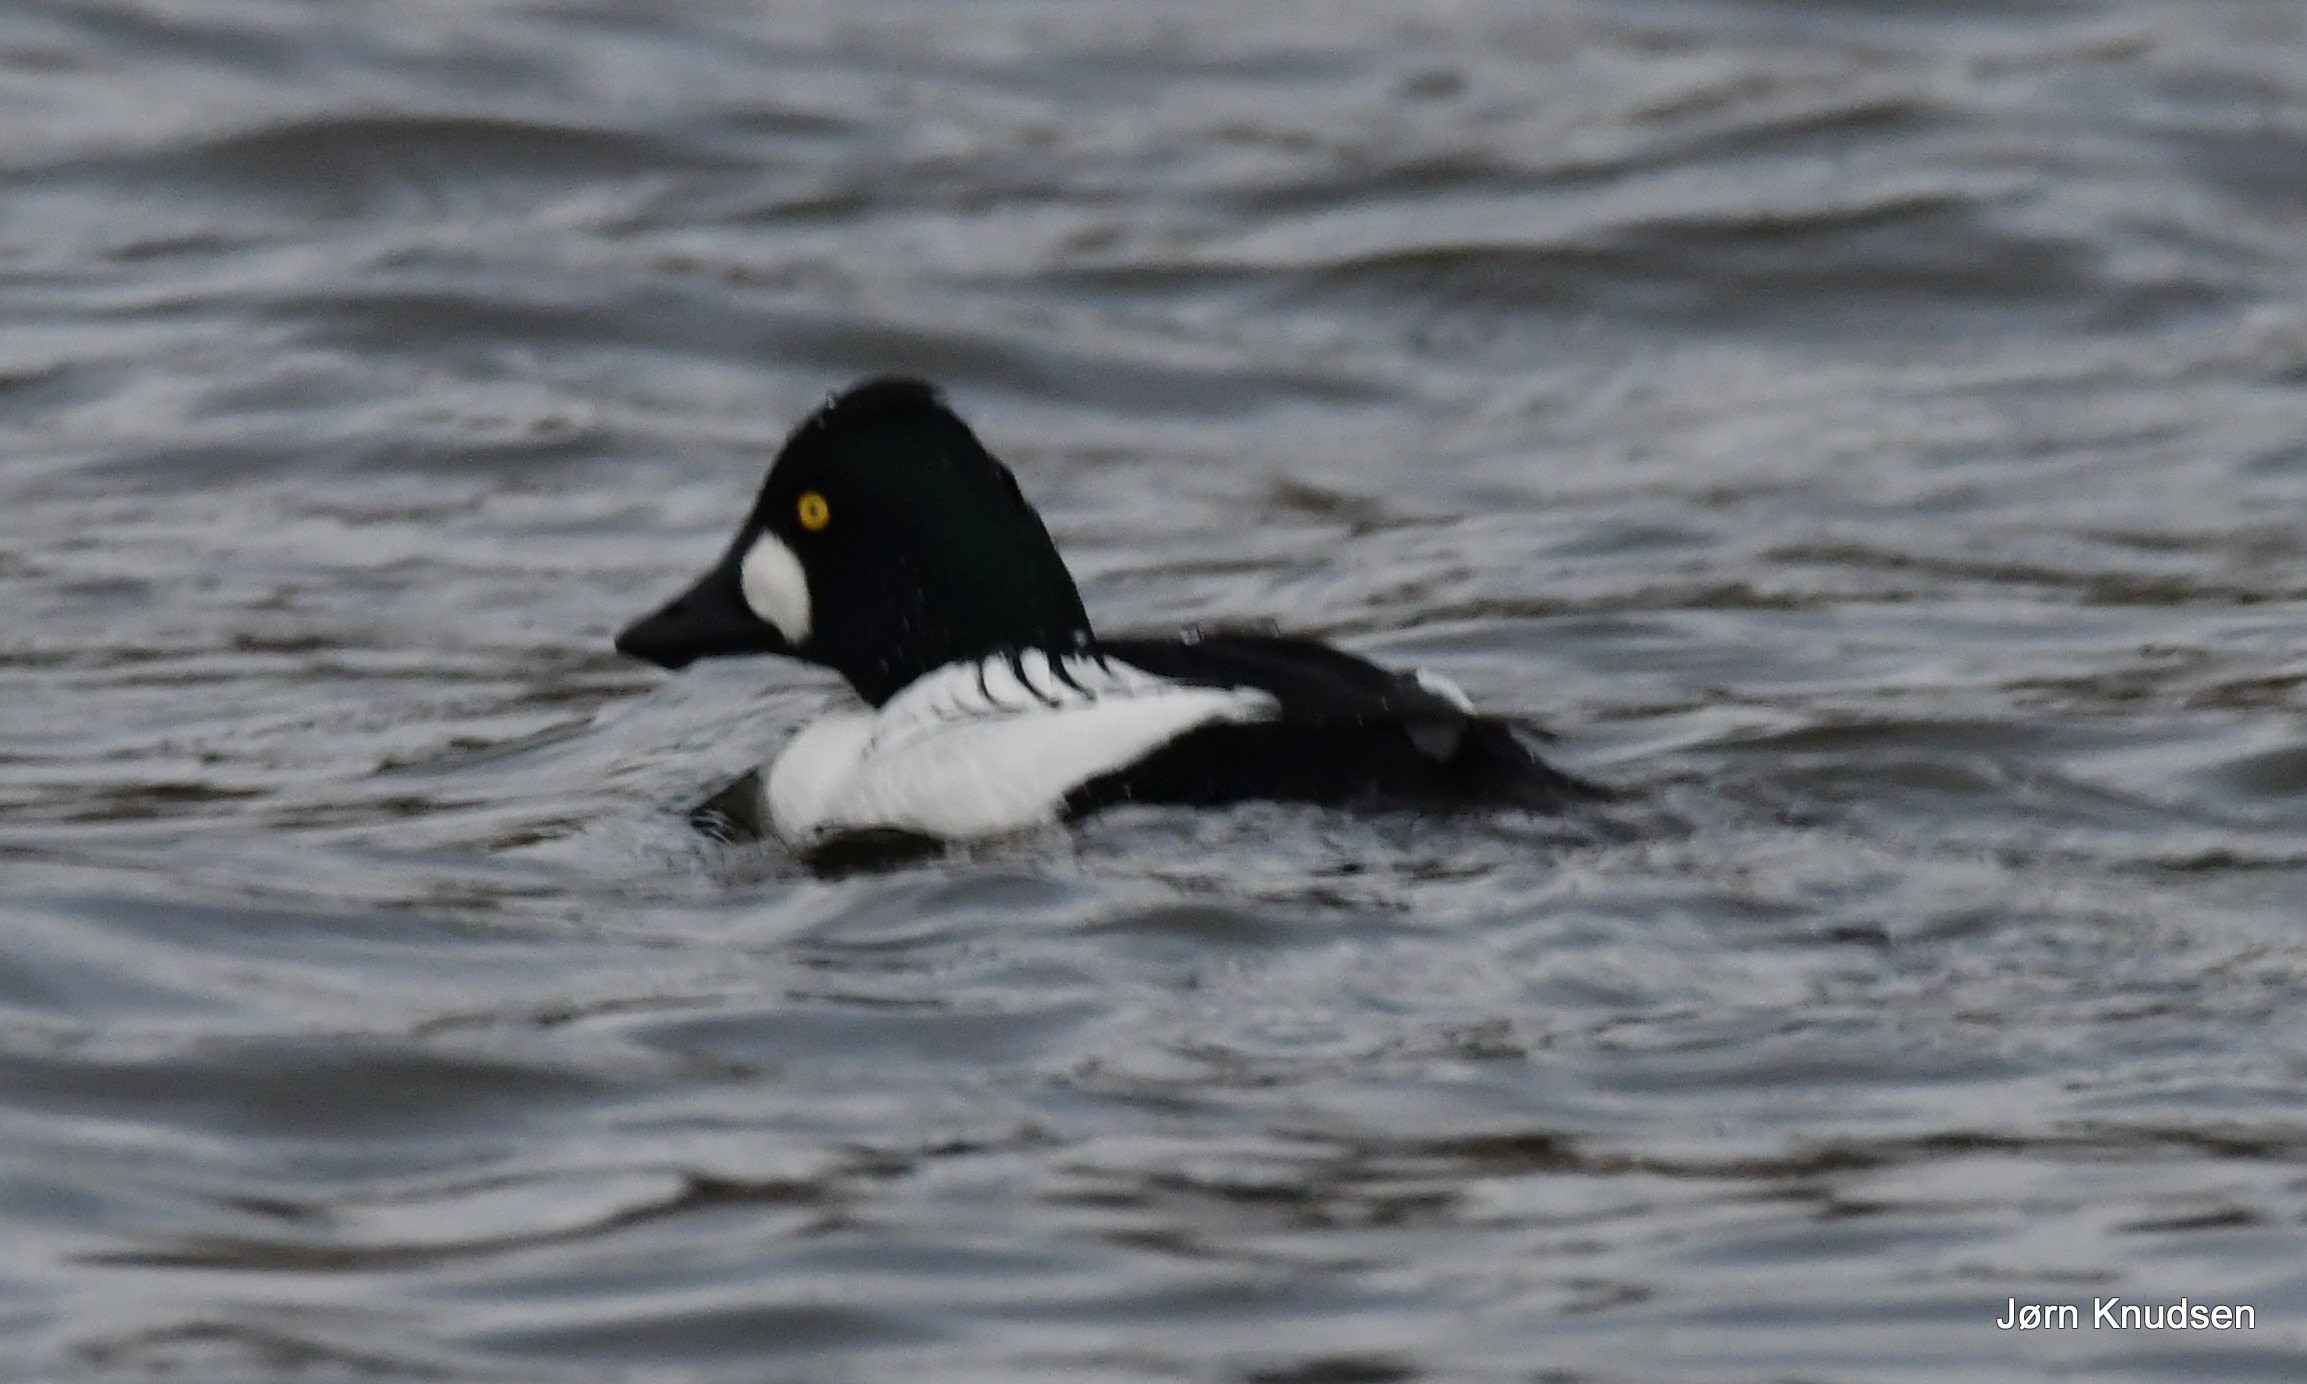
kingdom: Animalia
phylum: Chordata
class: Aves
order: Anseriformes
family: Anatidae
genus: Bucephala
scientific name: Bucephala clangula
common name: Hvinand
